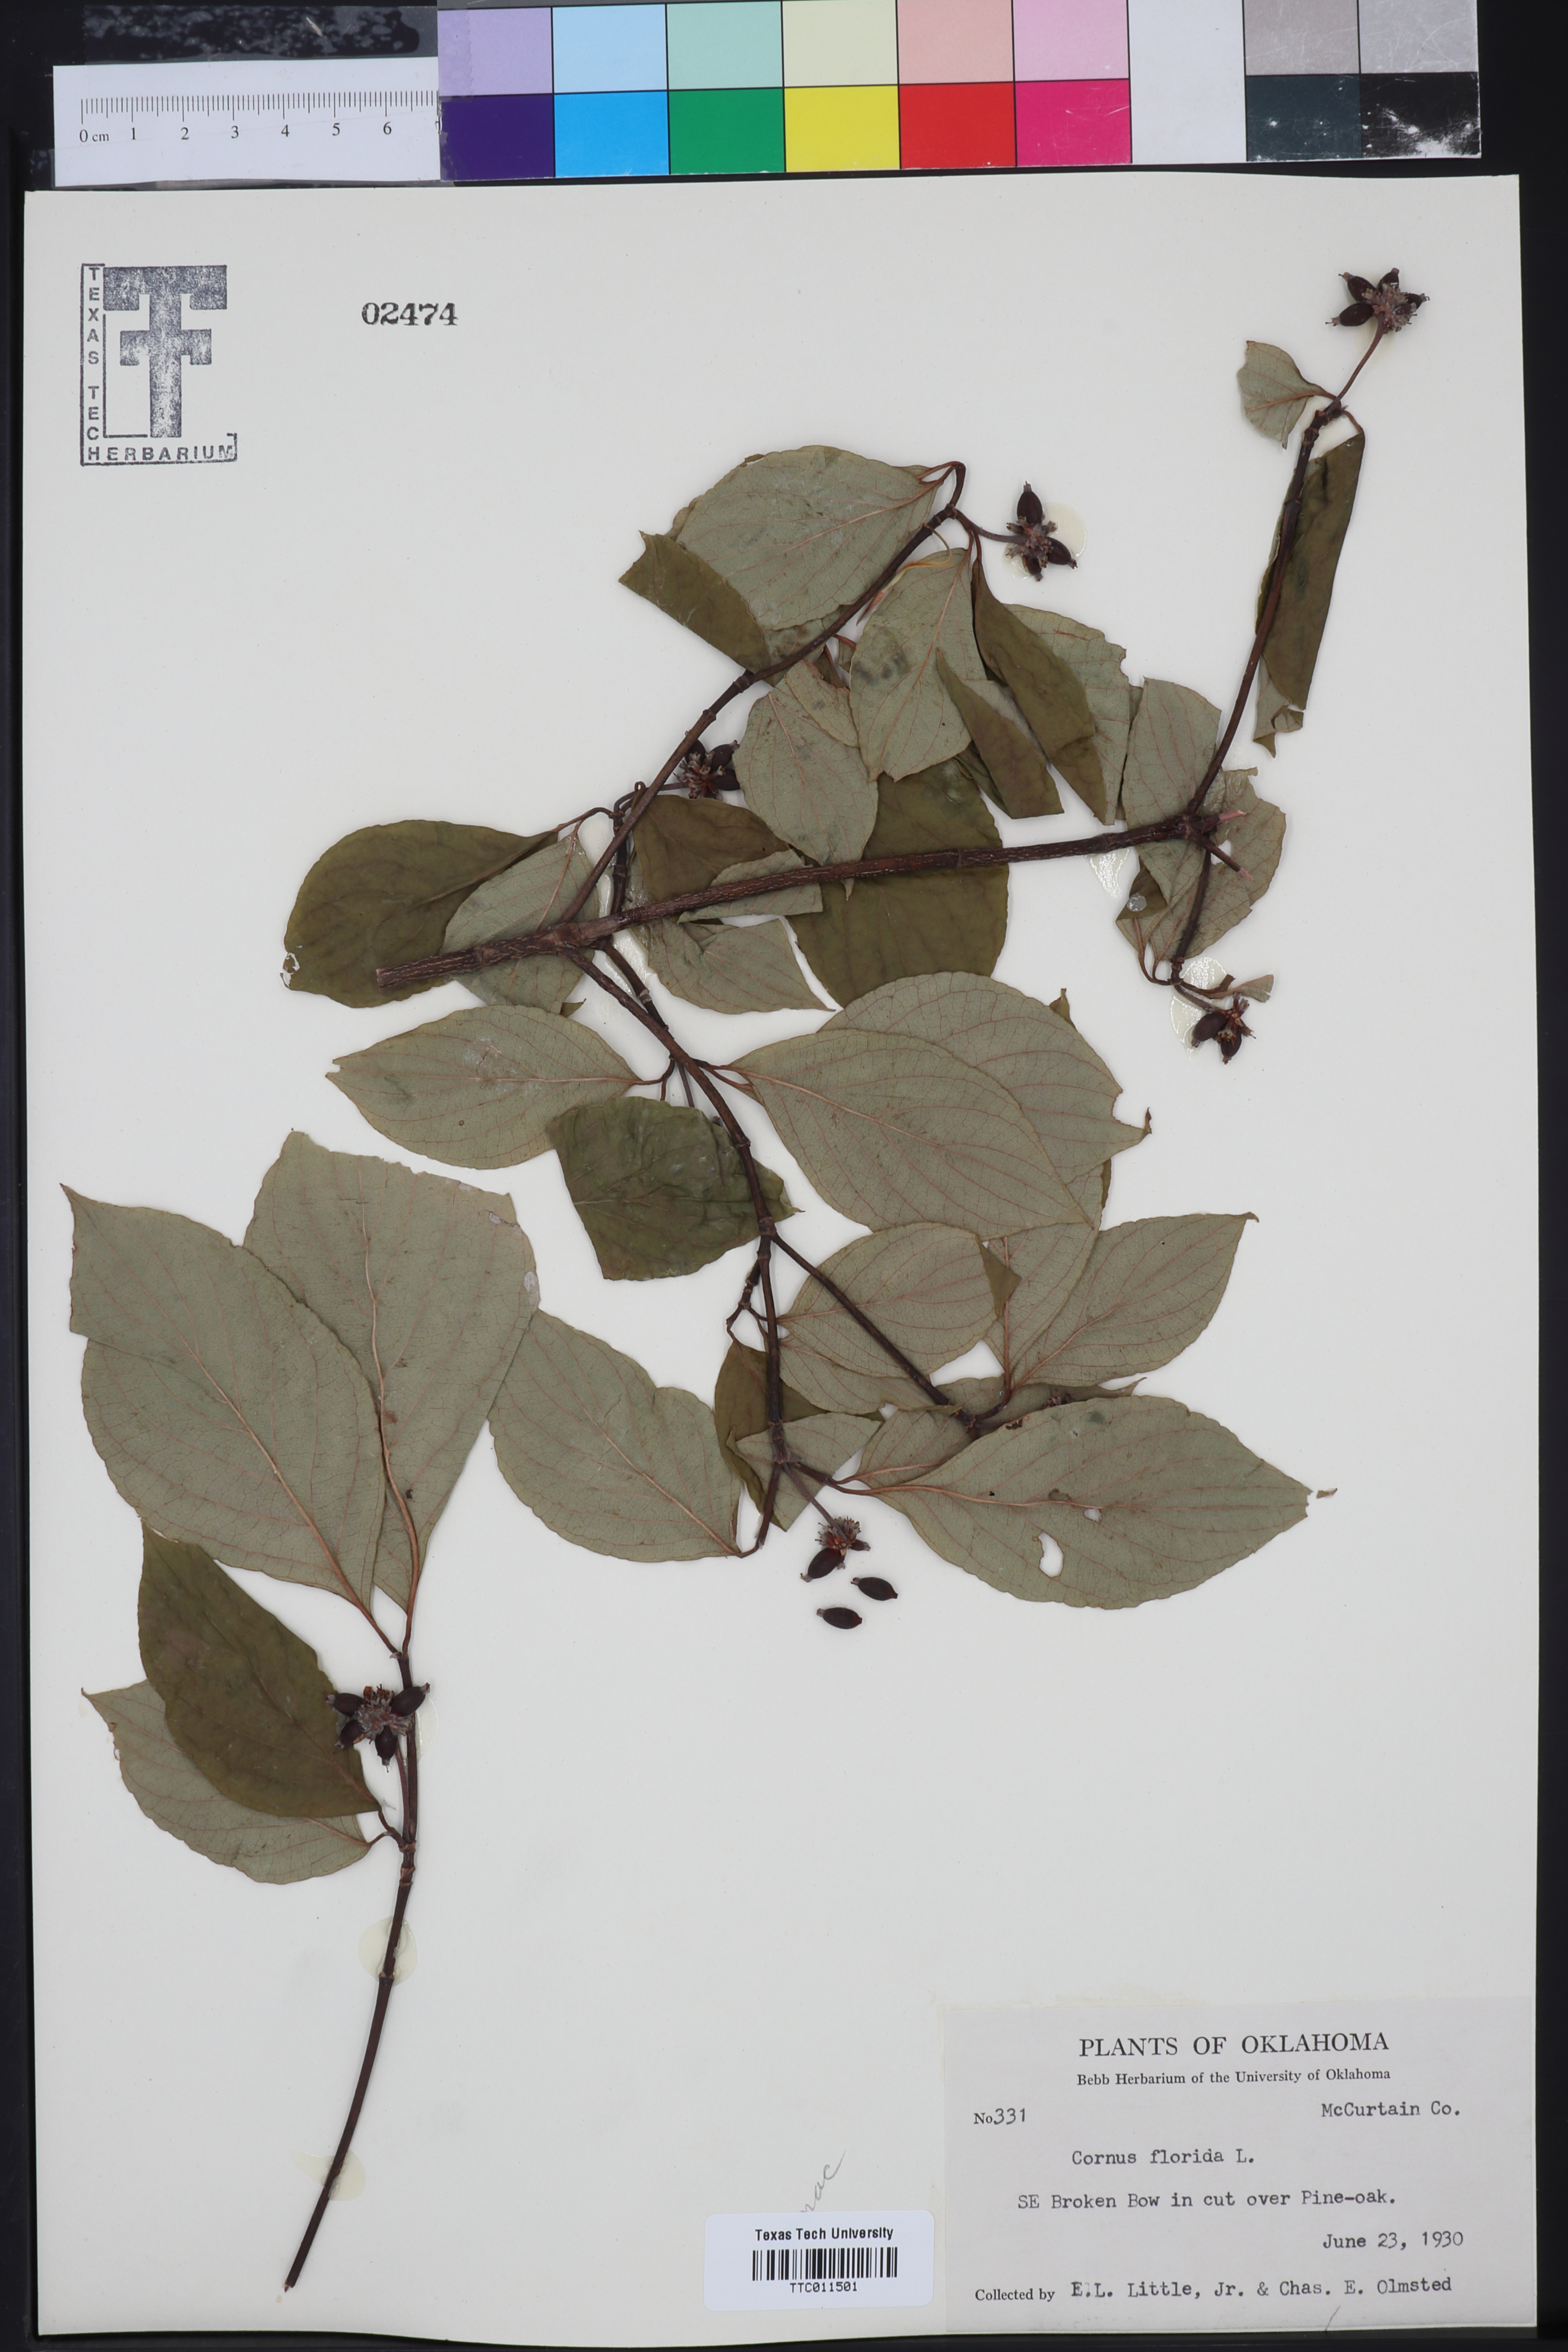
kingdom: Plantae
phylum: Tracheophyta
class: Magnoliopsida
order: Cornales
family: Cornaceae
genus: Cornus
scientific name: Cornus florida
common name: Flowering dogwood
